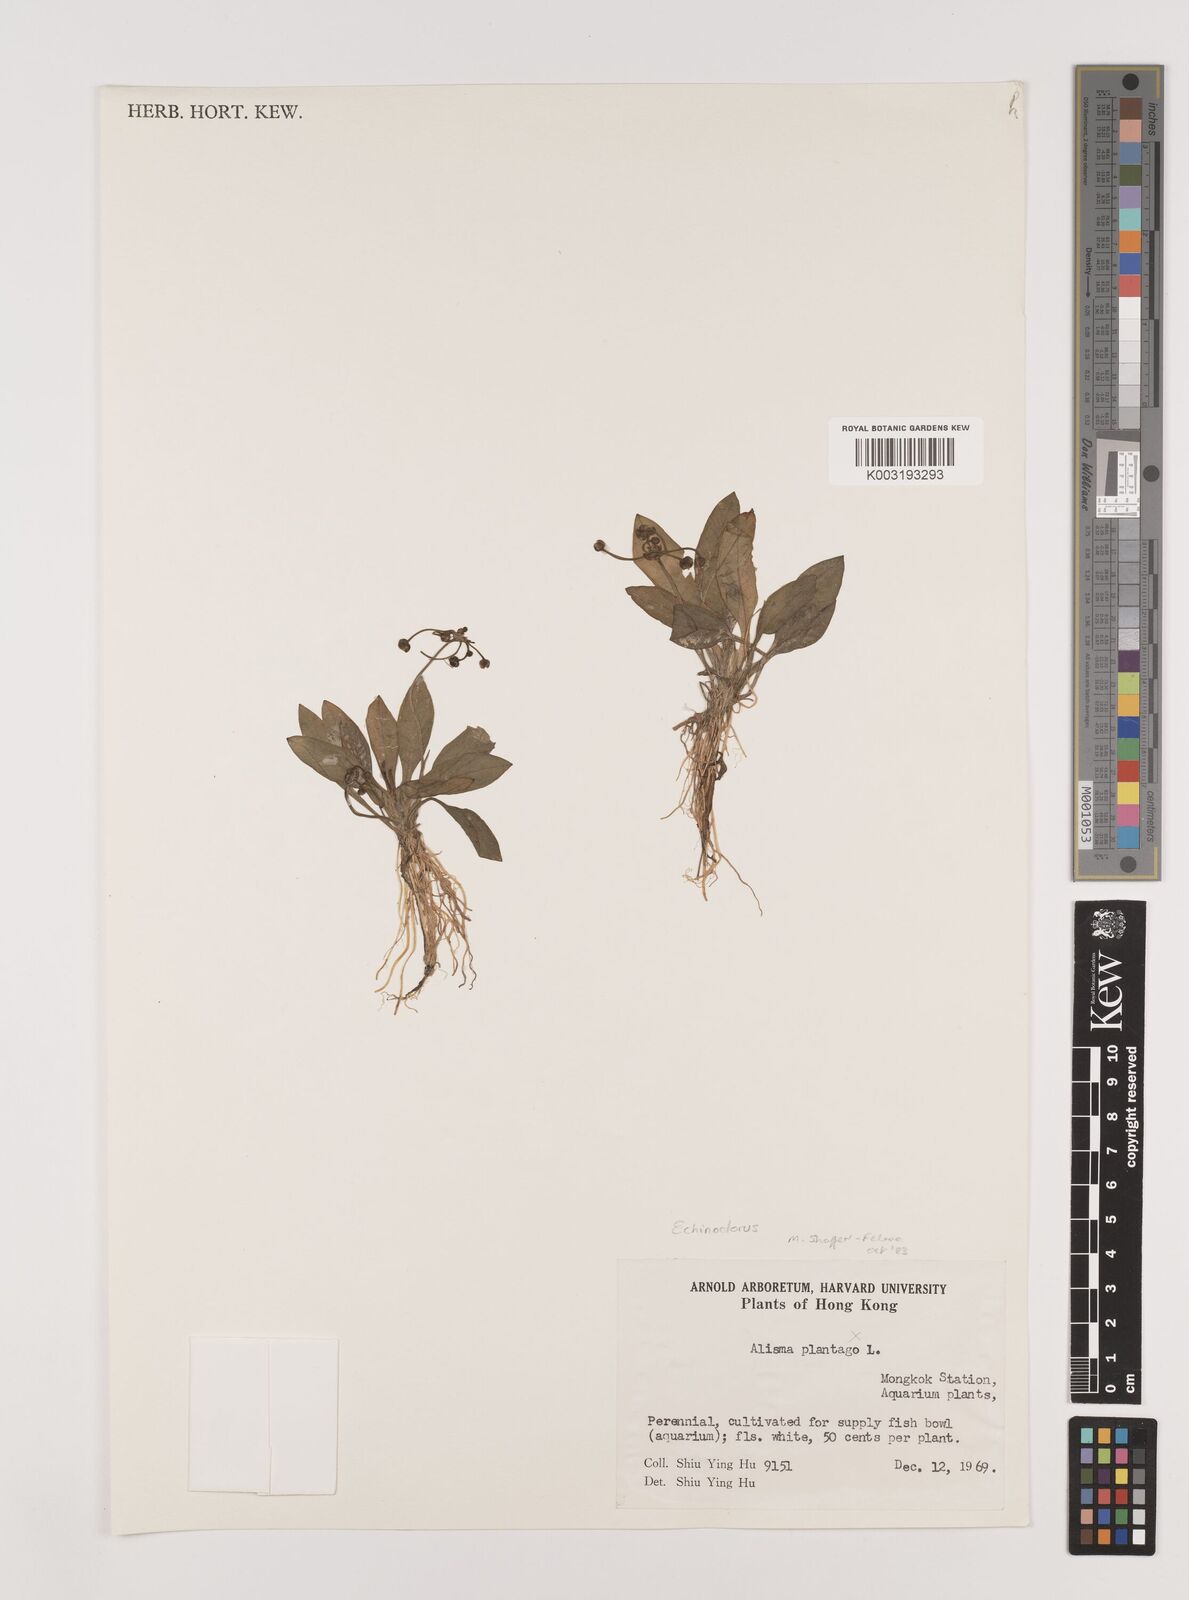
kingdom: Plantae
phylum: Tracheophyta
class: Liliopsida
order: Alismatales
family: Alismataceae
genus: Echinodorus
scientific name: Echinodorus
